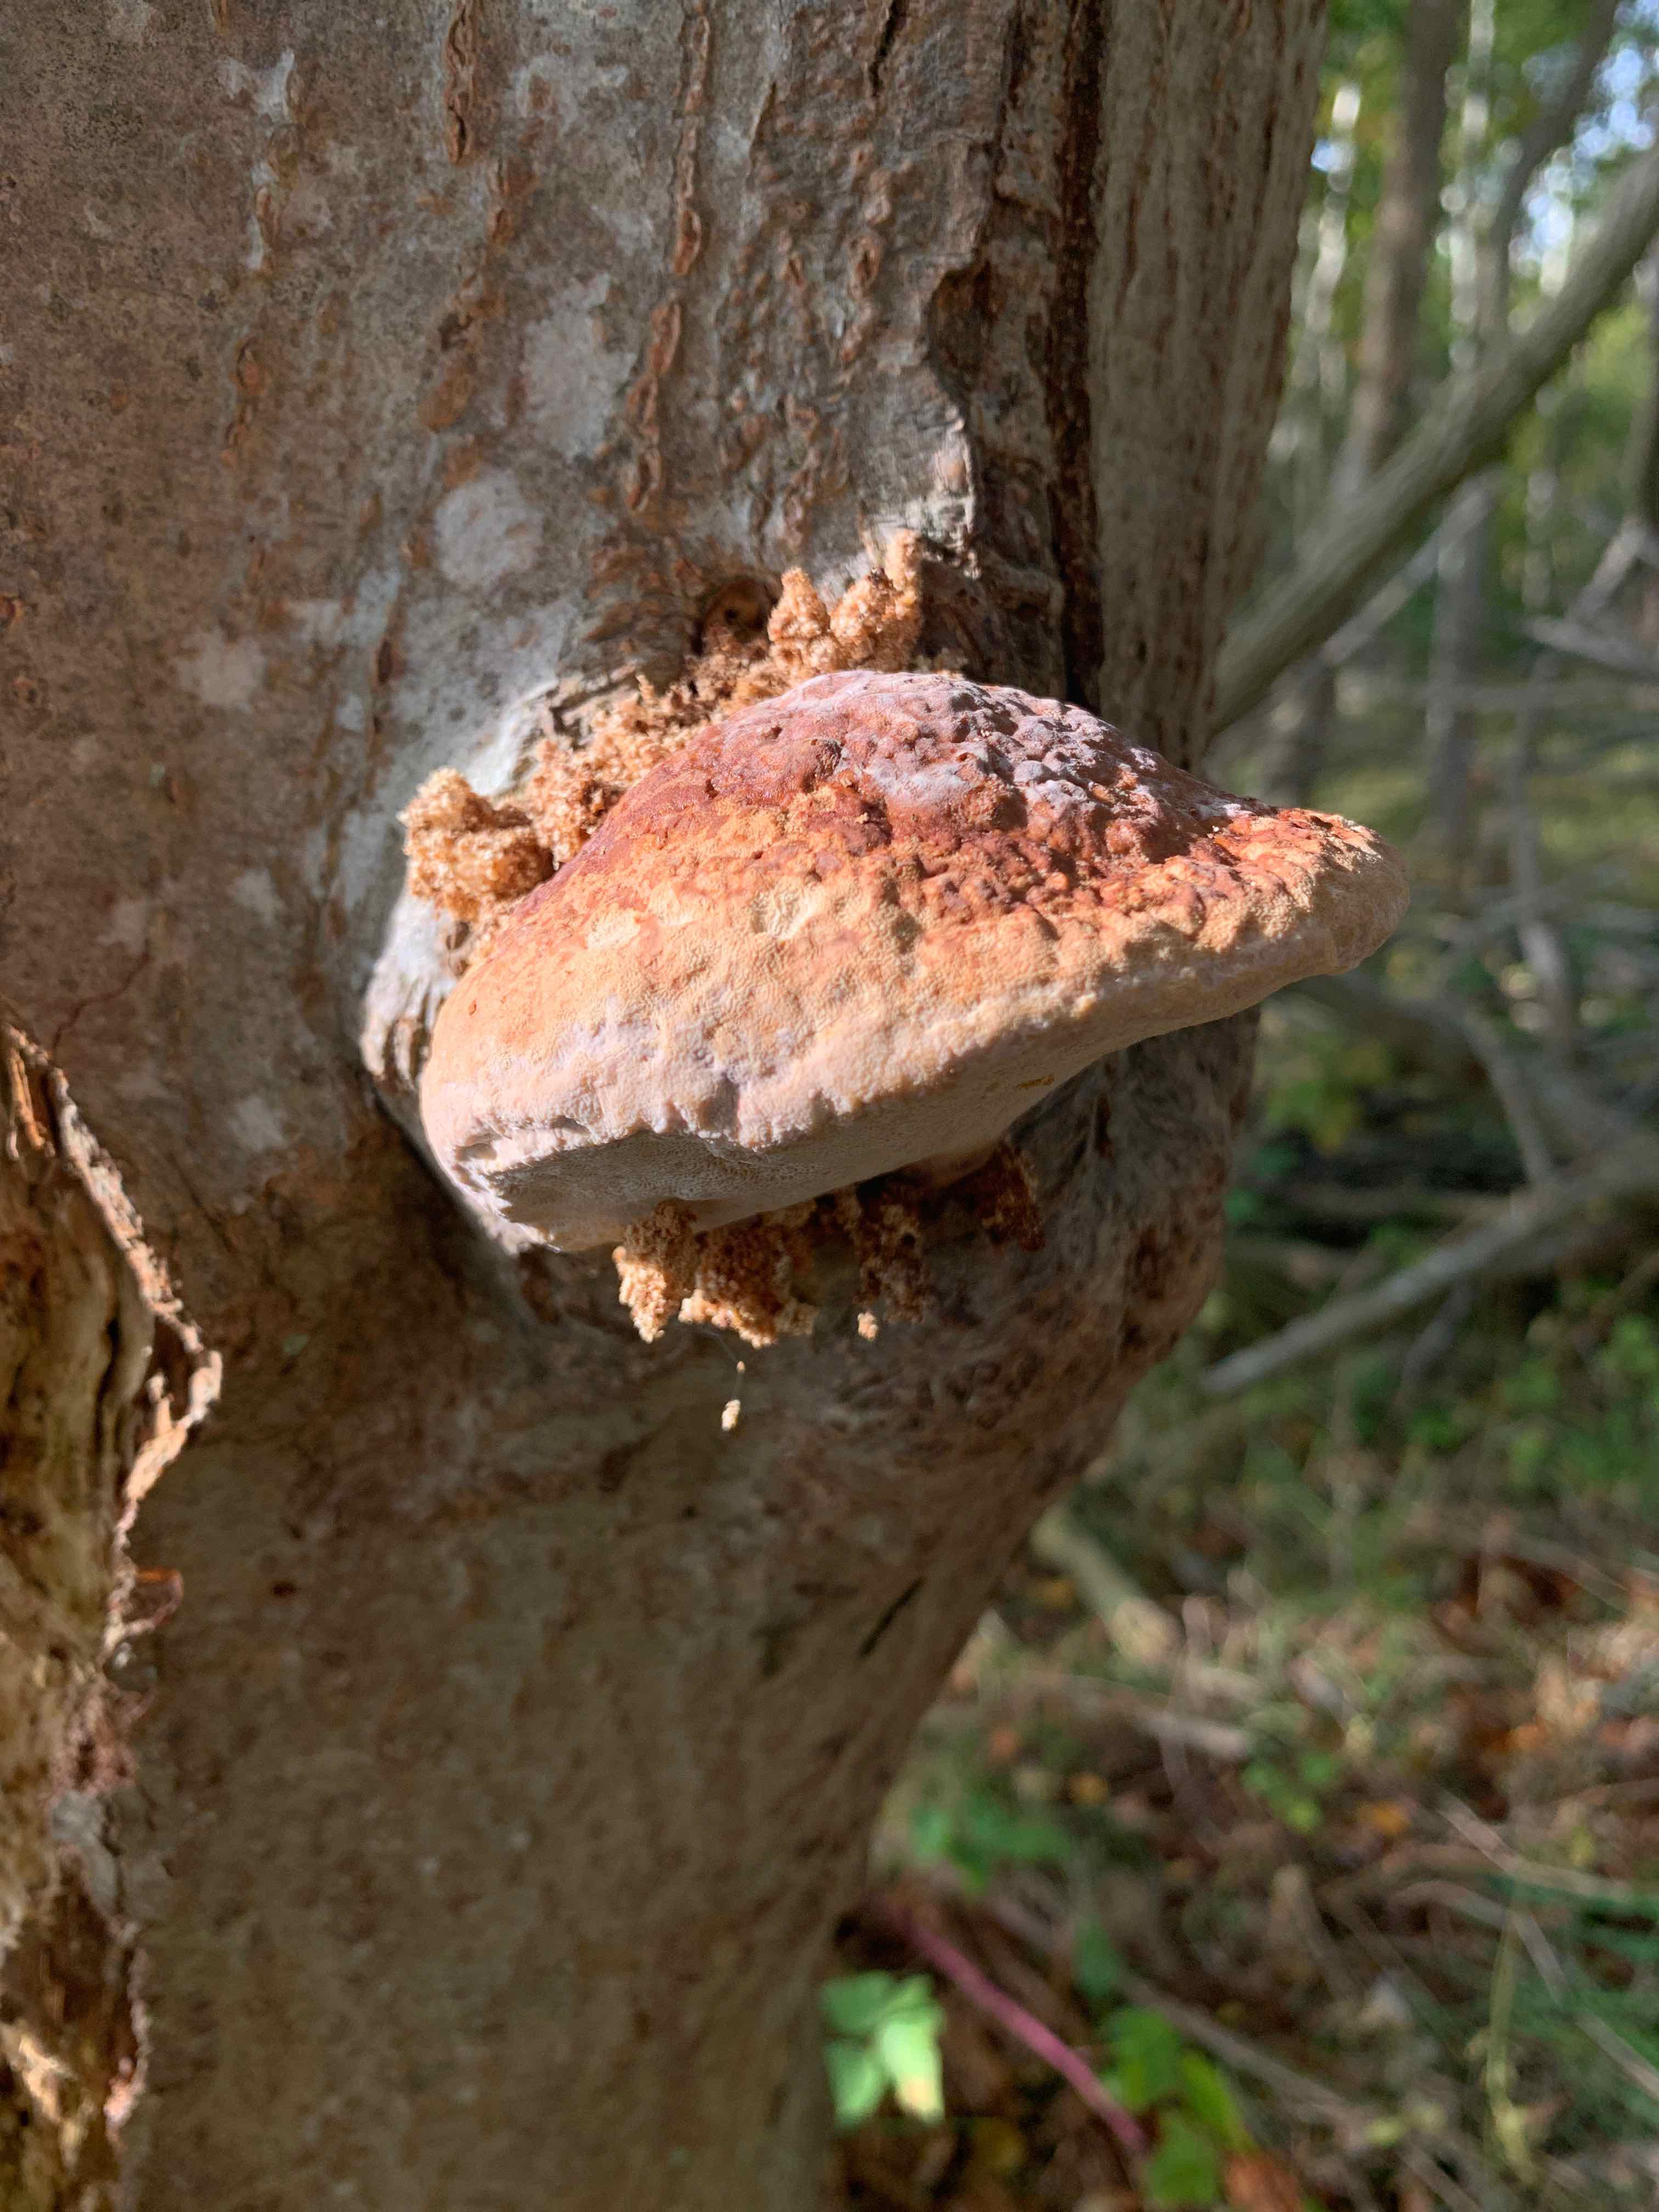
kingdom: Fungi
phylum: Basidiomycota
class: Agaricomycetes
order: Polyporales
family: Fomitopsidaceae
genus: Fomitopsis
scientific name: Fomitopsis pinicola
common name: randbæltet hovporesvamp
